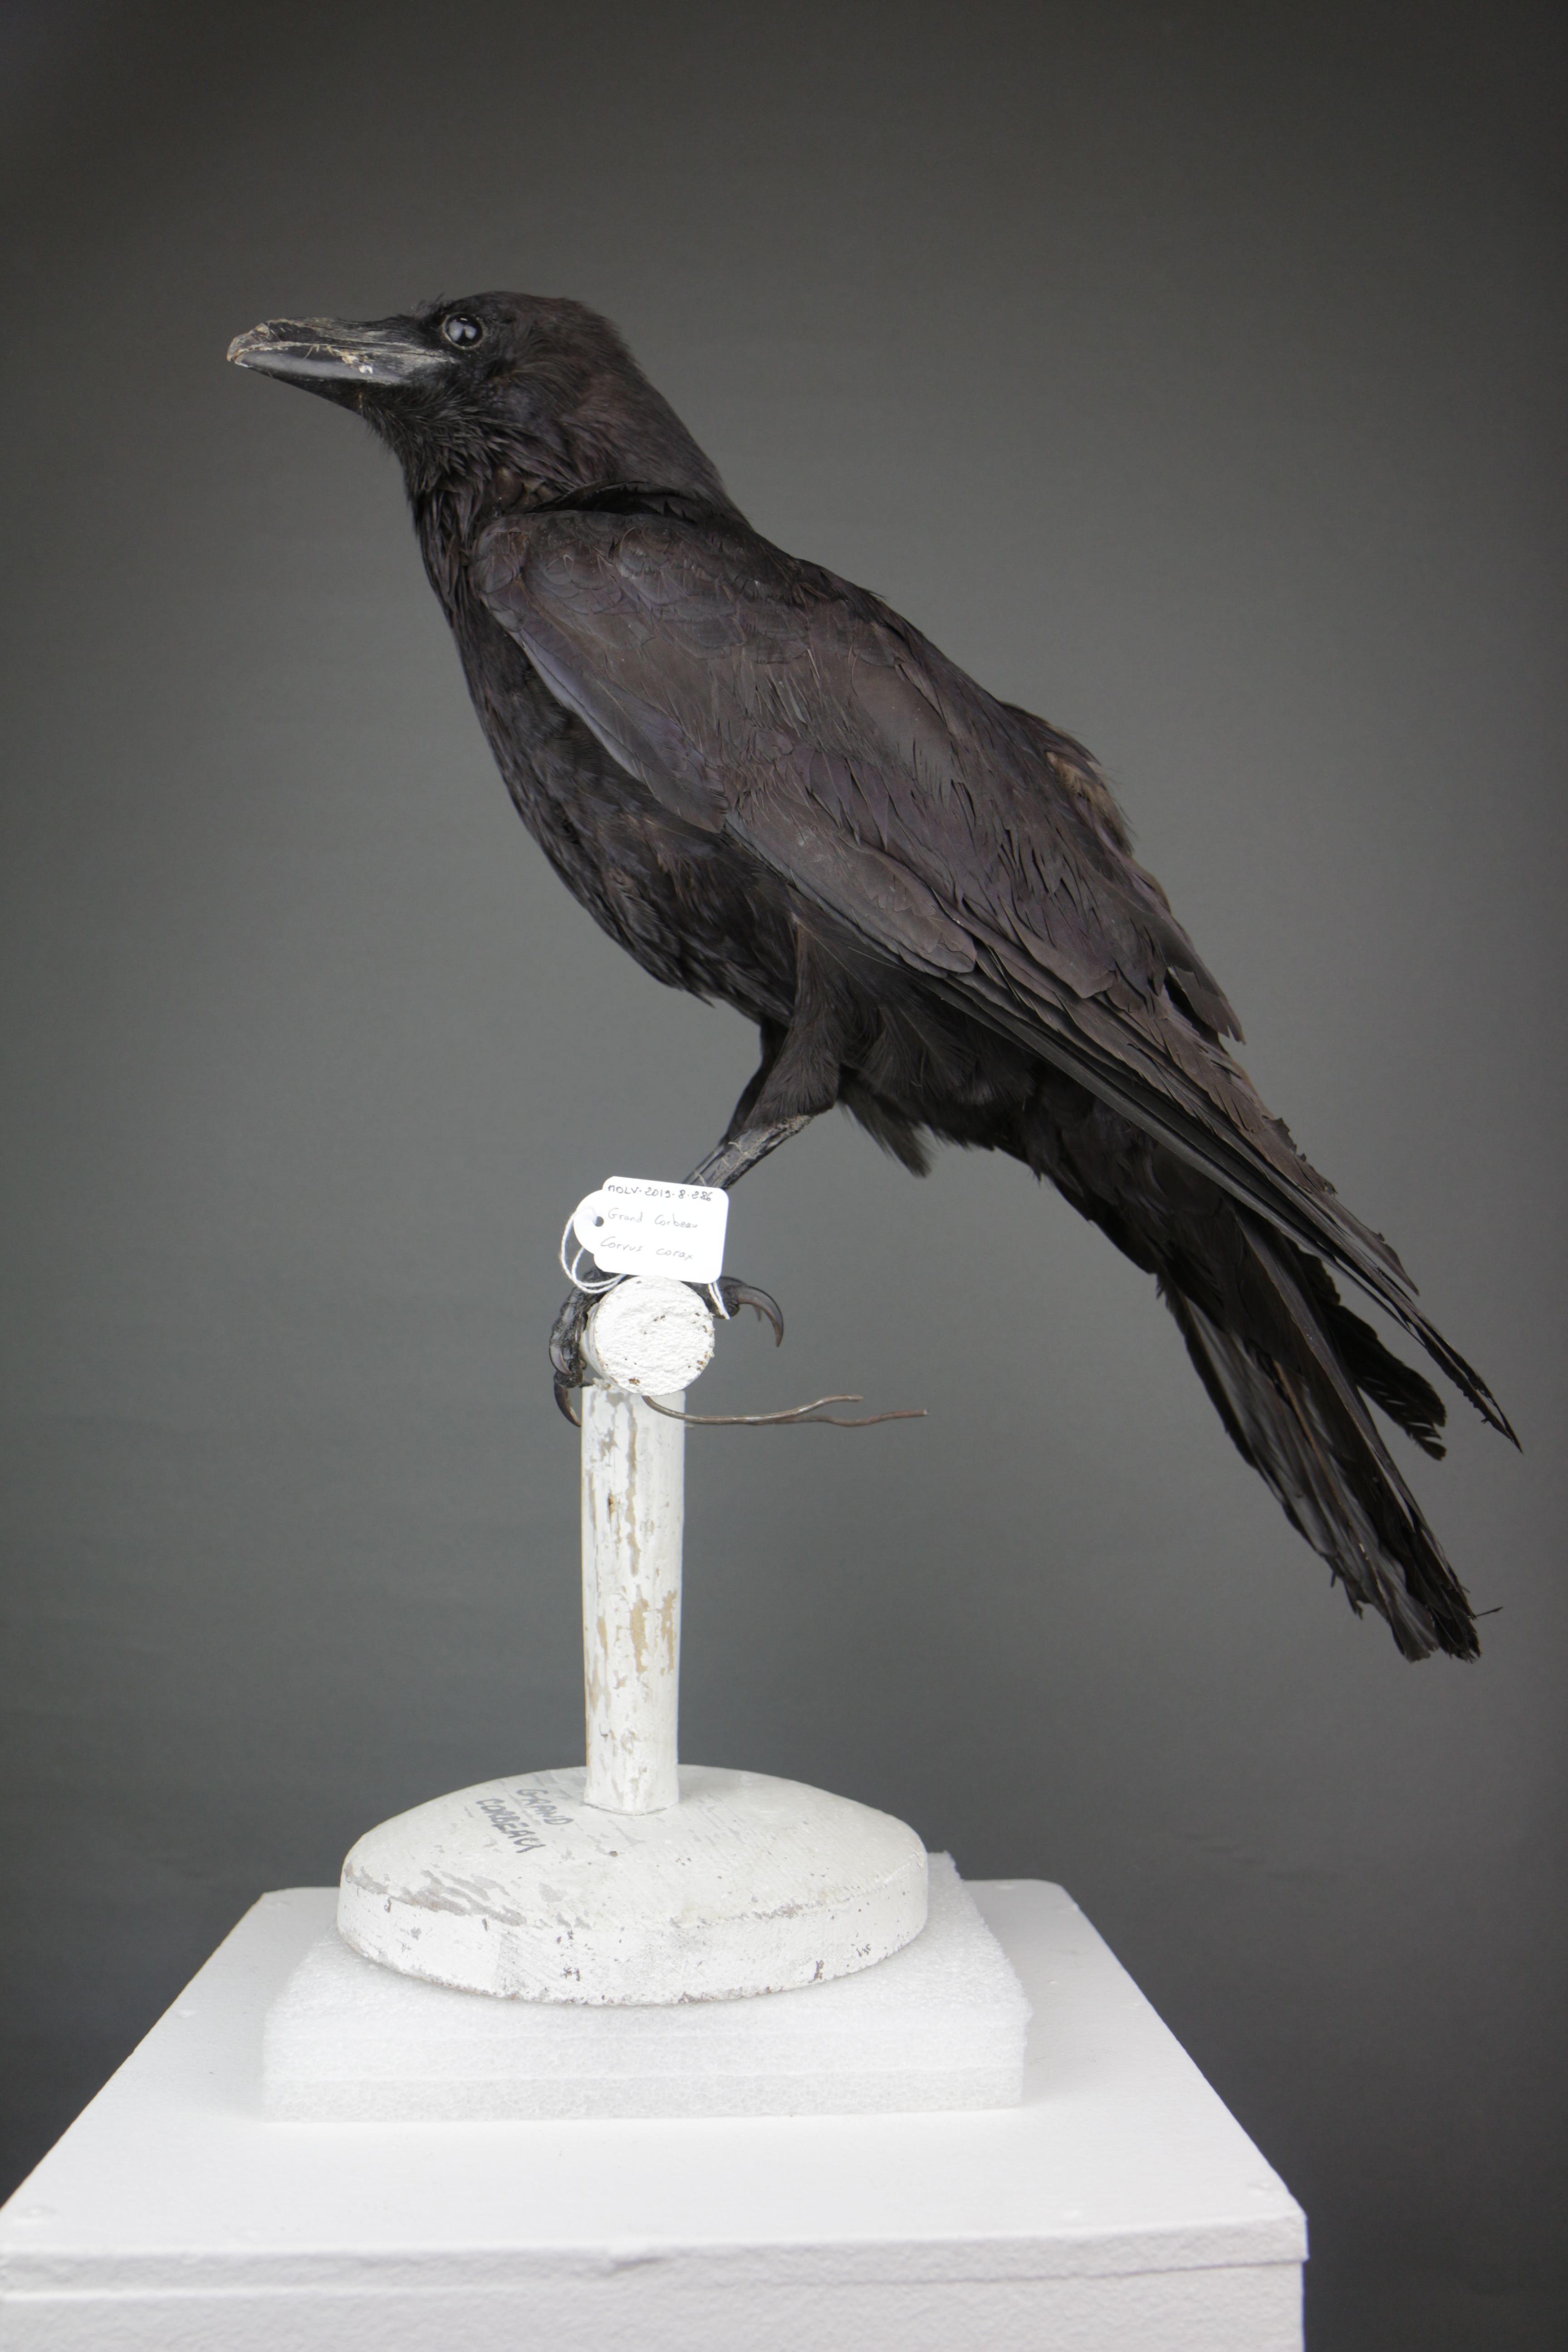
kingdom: Animalia
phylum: Chordata
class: Aves
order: Passeriformes
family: Corvidae
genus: Corvus
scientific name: Corvus corax
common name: Common raven
